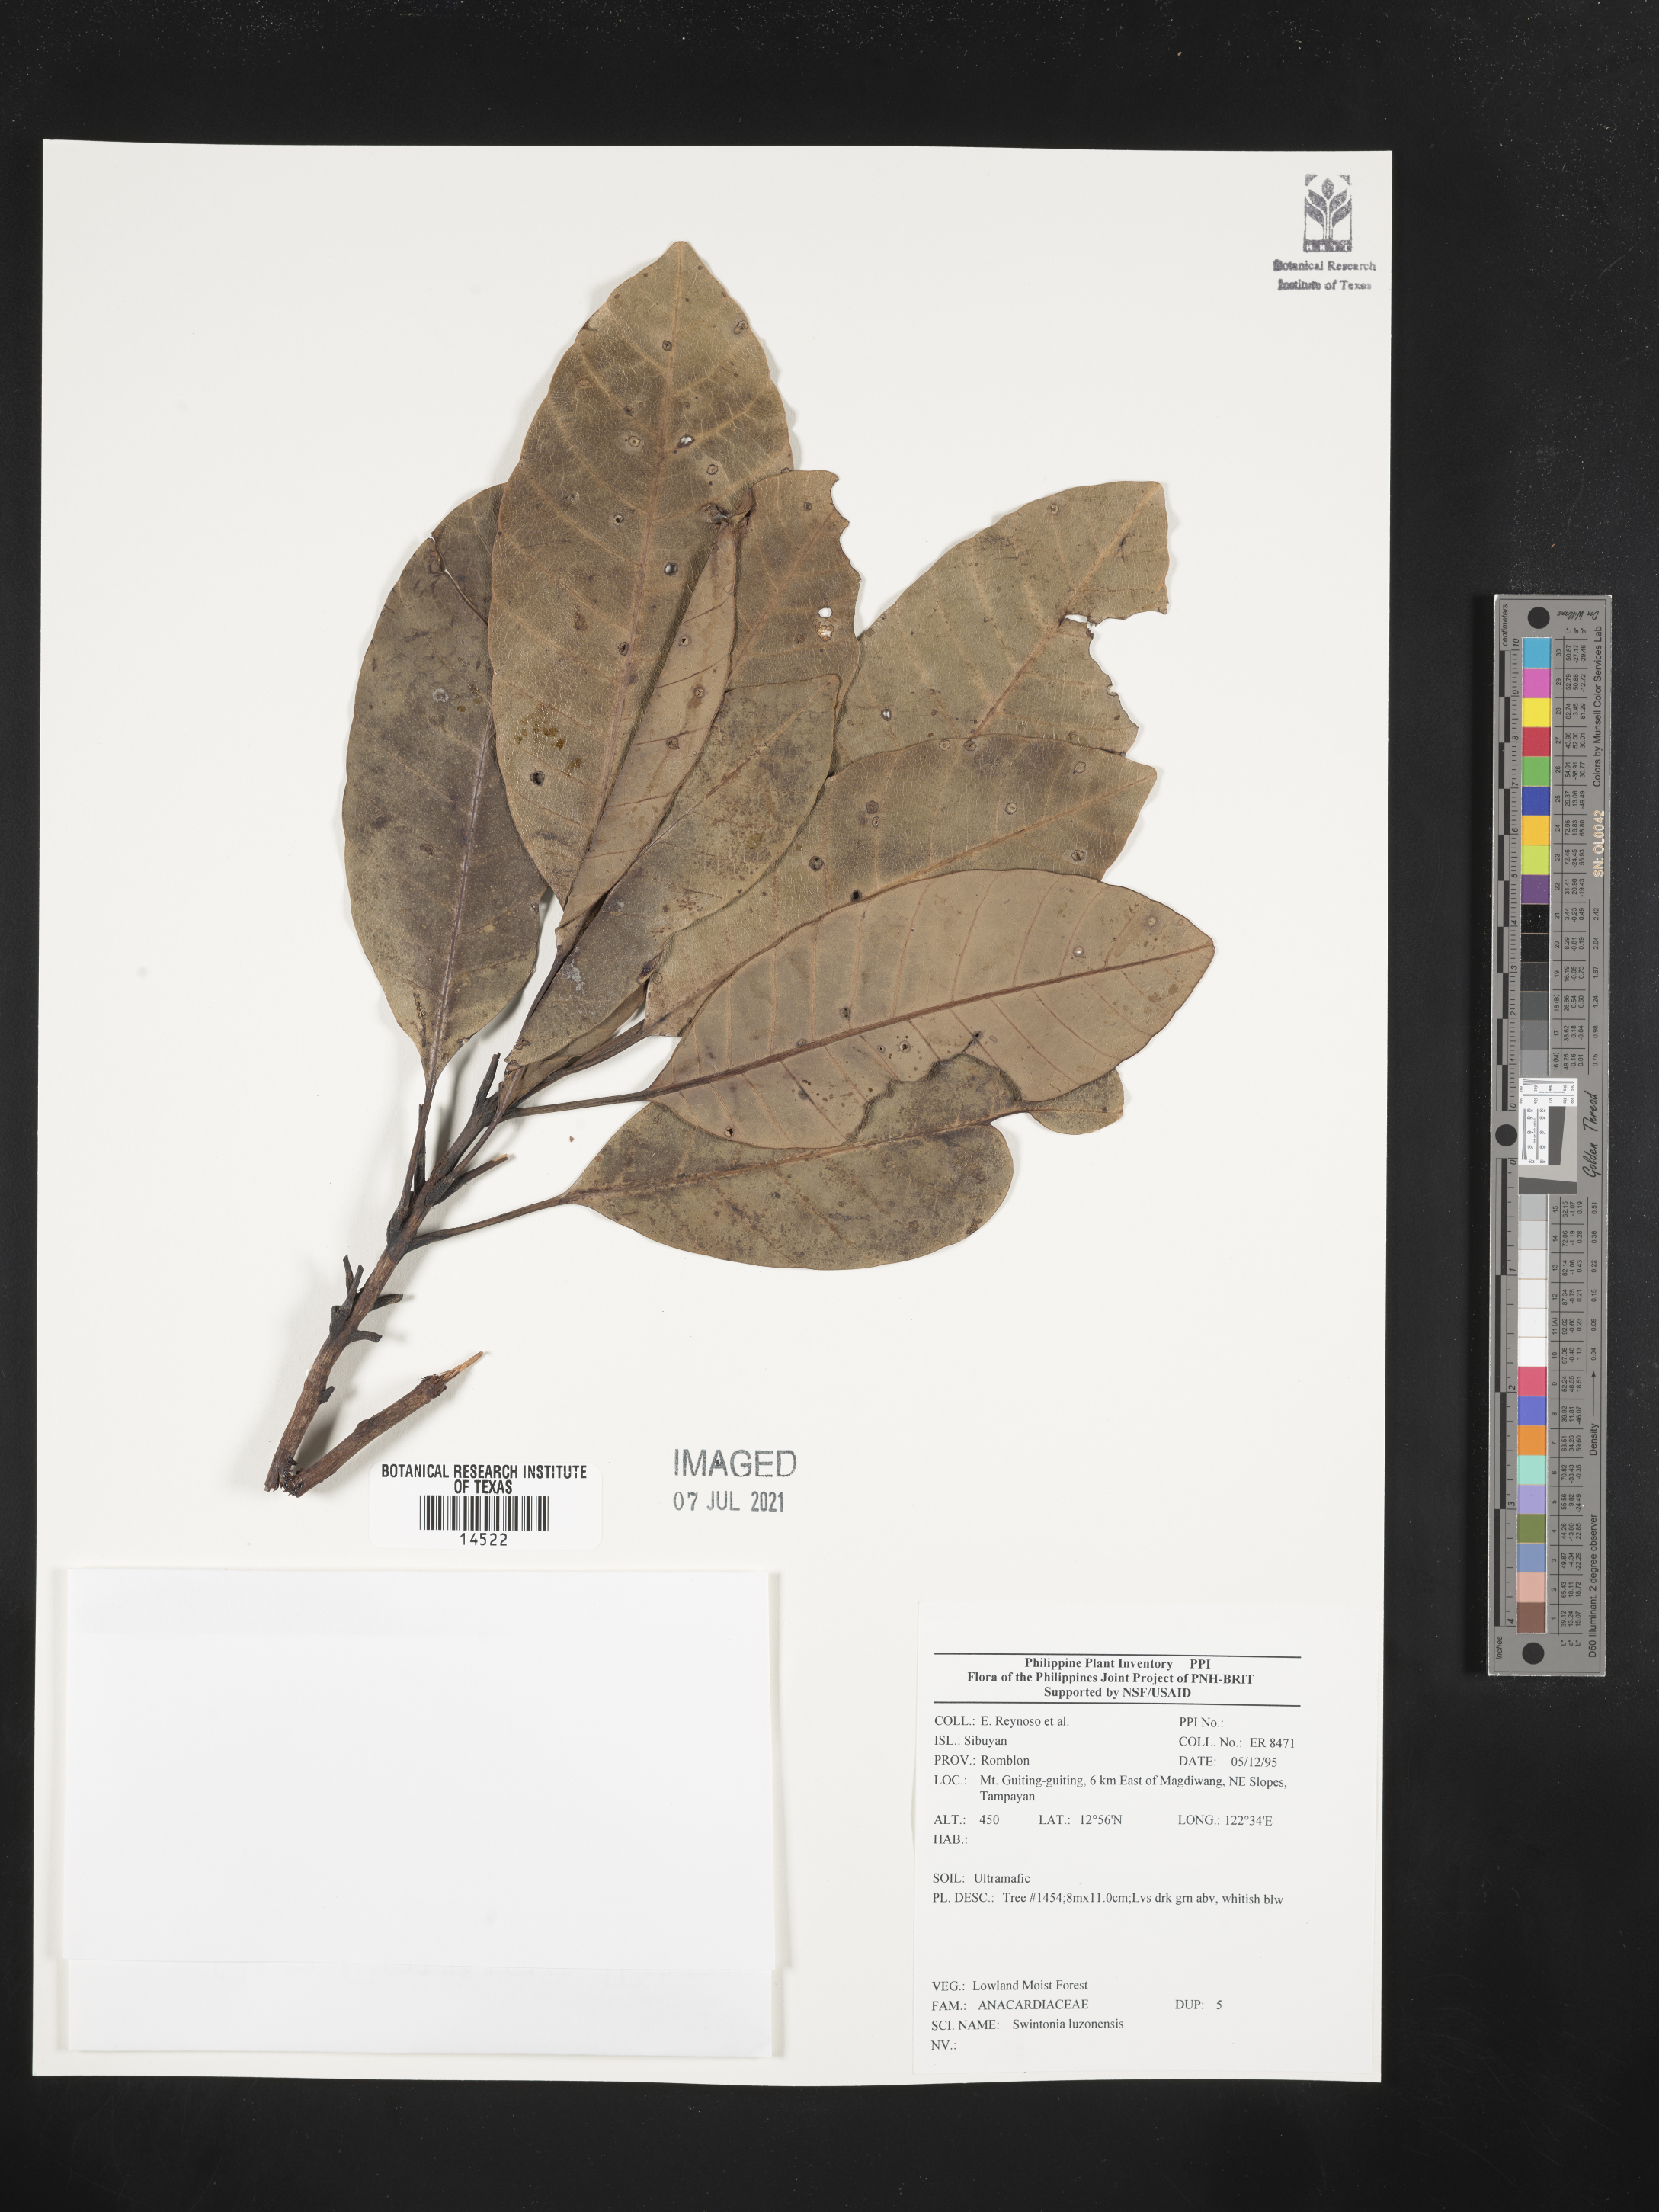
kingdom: Plantae
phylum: Tracheophyta
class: Magnoliopsida
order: Sapindales
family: Anacardiaceae
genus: Swintonia
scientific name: Swintonia acuta
